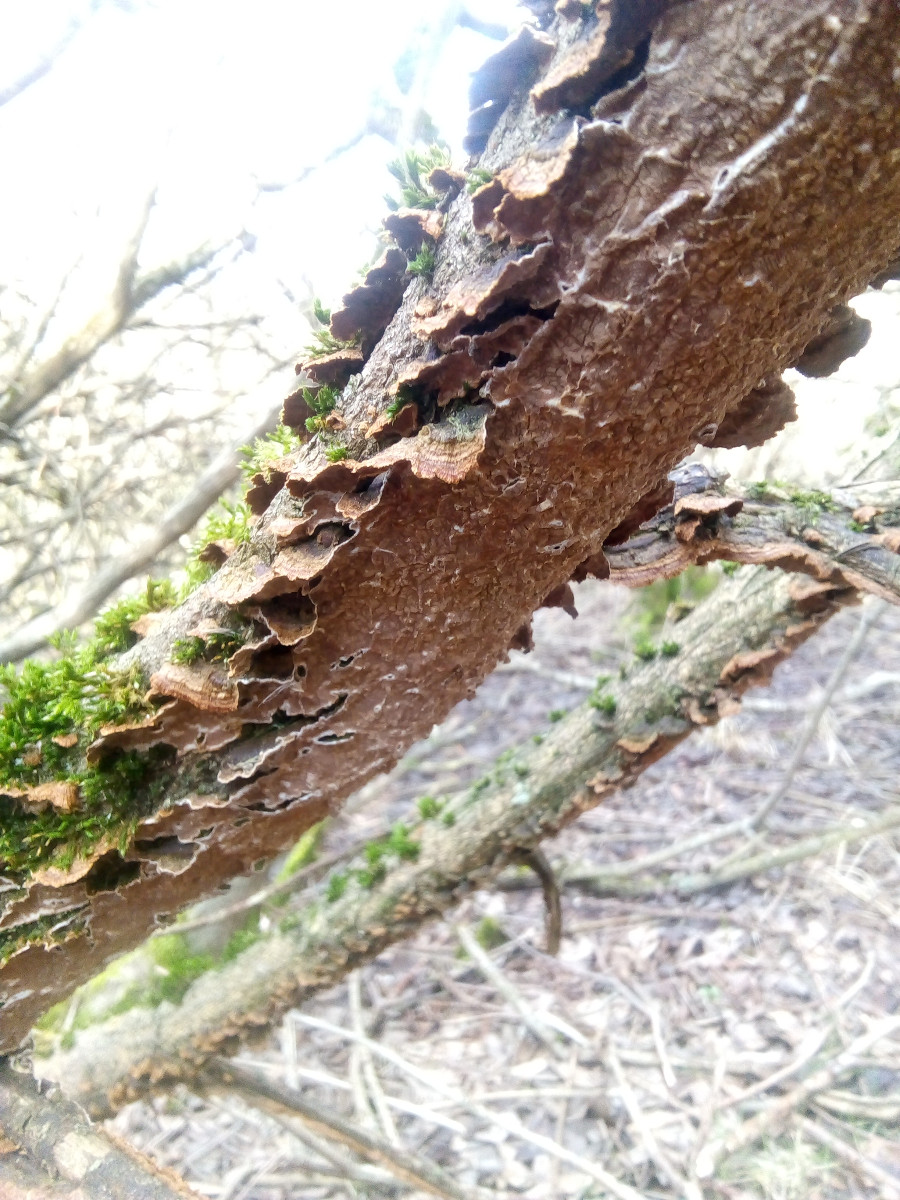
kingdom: Fungi
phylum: Basidiomycota
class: Agaricomycetes
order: Hymenochaetales
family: Hymenochaetaceae
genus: Hydnoporia
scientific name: Hydnoporia tabacina
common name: tobaksbrun ruslædersvamp
